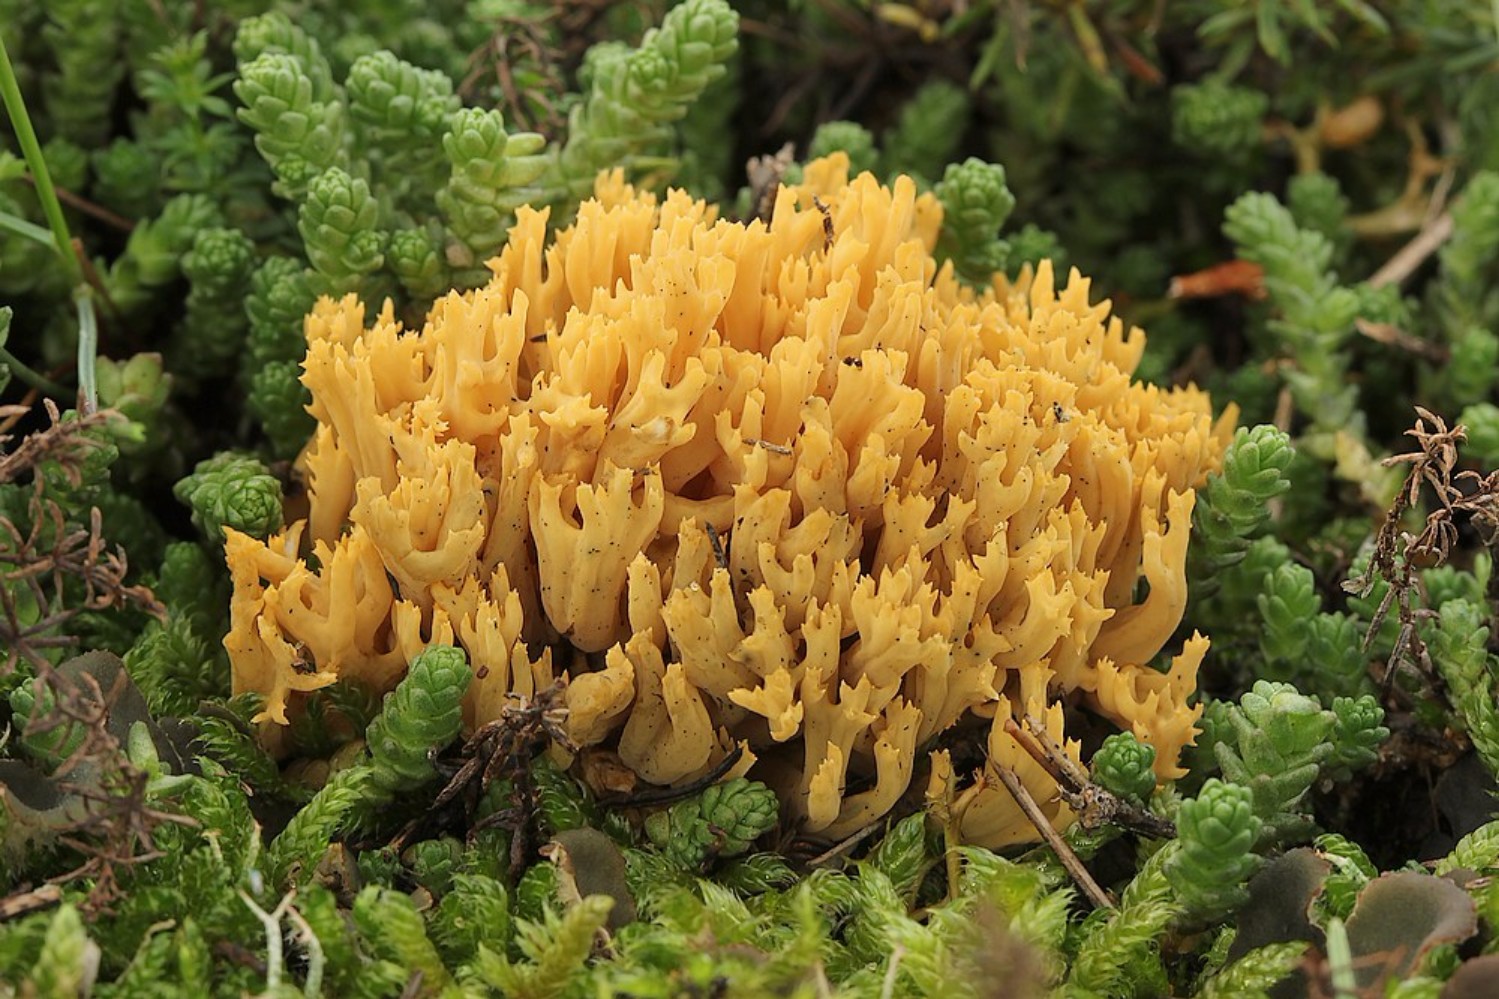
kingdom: Fungi
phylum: Basidiomycota
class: Agaricomycetes
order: Gomphales
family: Gomphaceae
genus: Phaeoclavulina
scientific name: Phaeoclavulina flaccida
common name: spinkel koralsvamp
